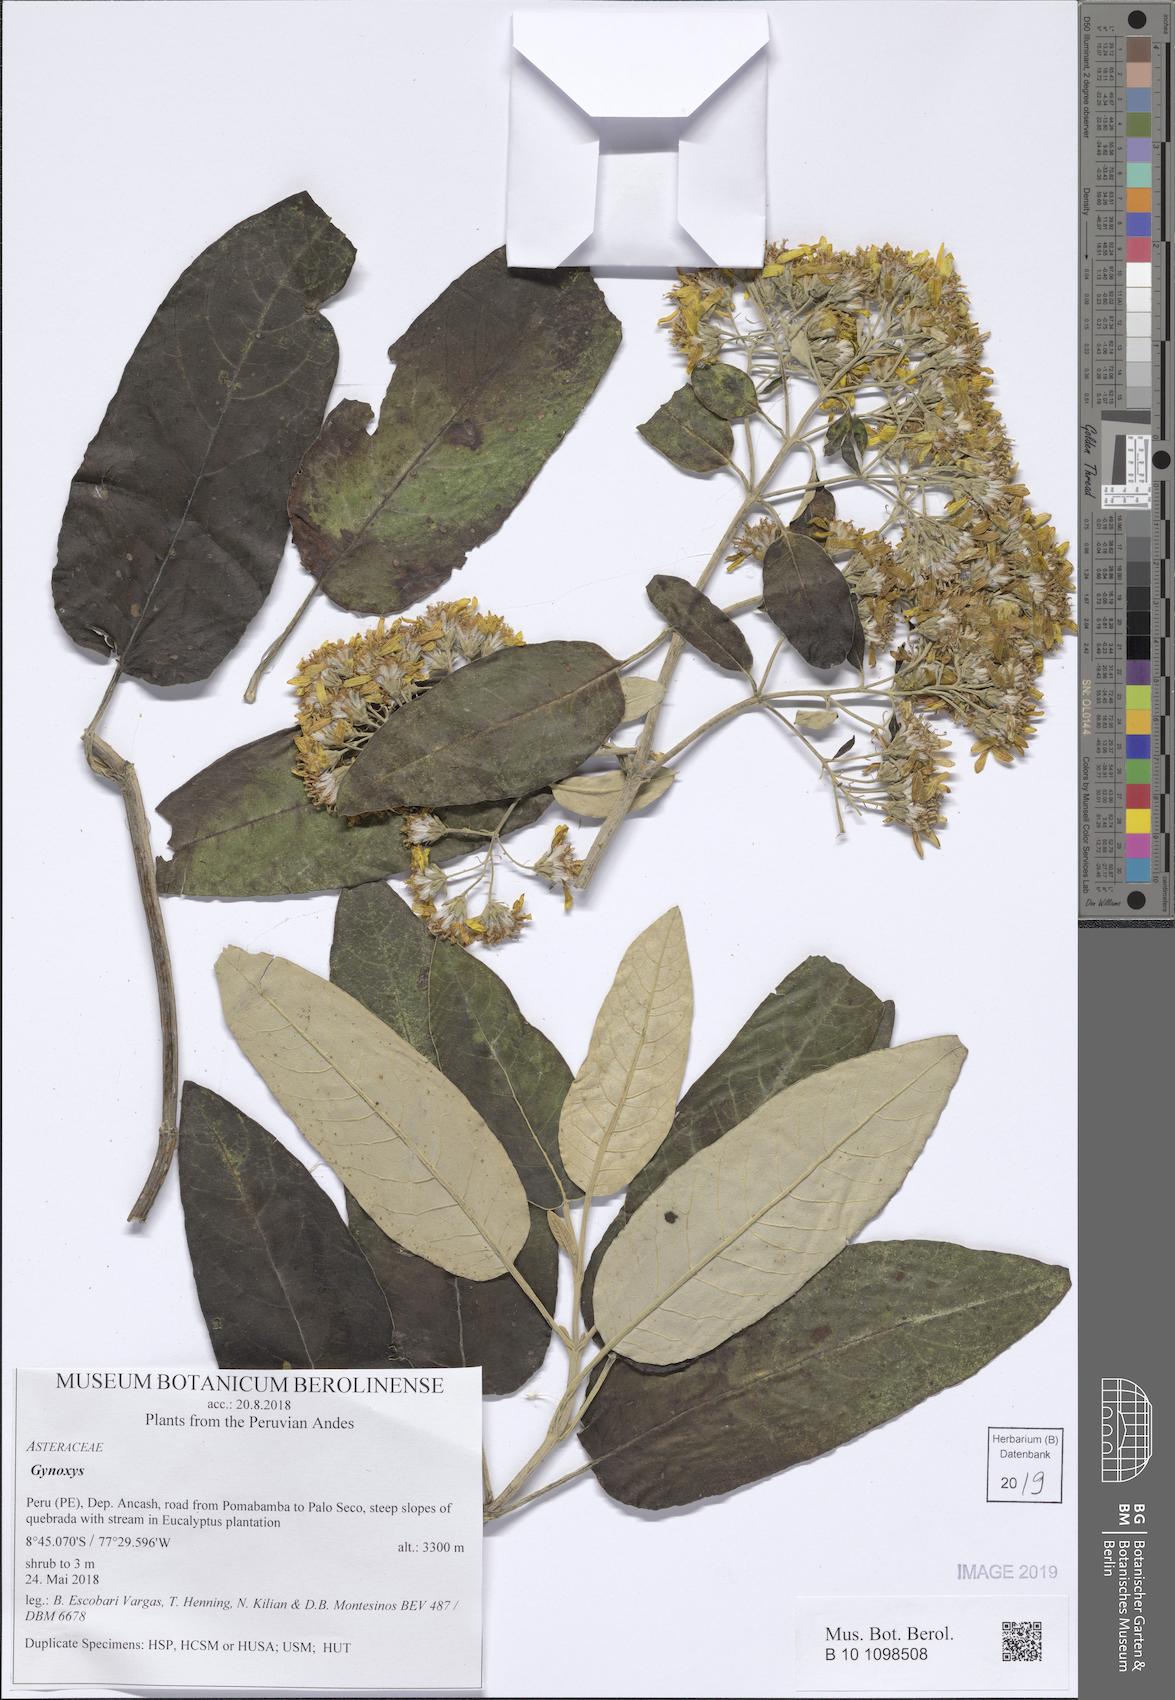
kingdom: Plantae
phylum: Tracheophyta
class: Magnoliopsida
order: Asterales
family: Asteraceae
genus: Gynoxys
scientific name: Gynoxys
